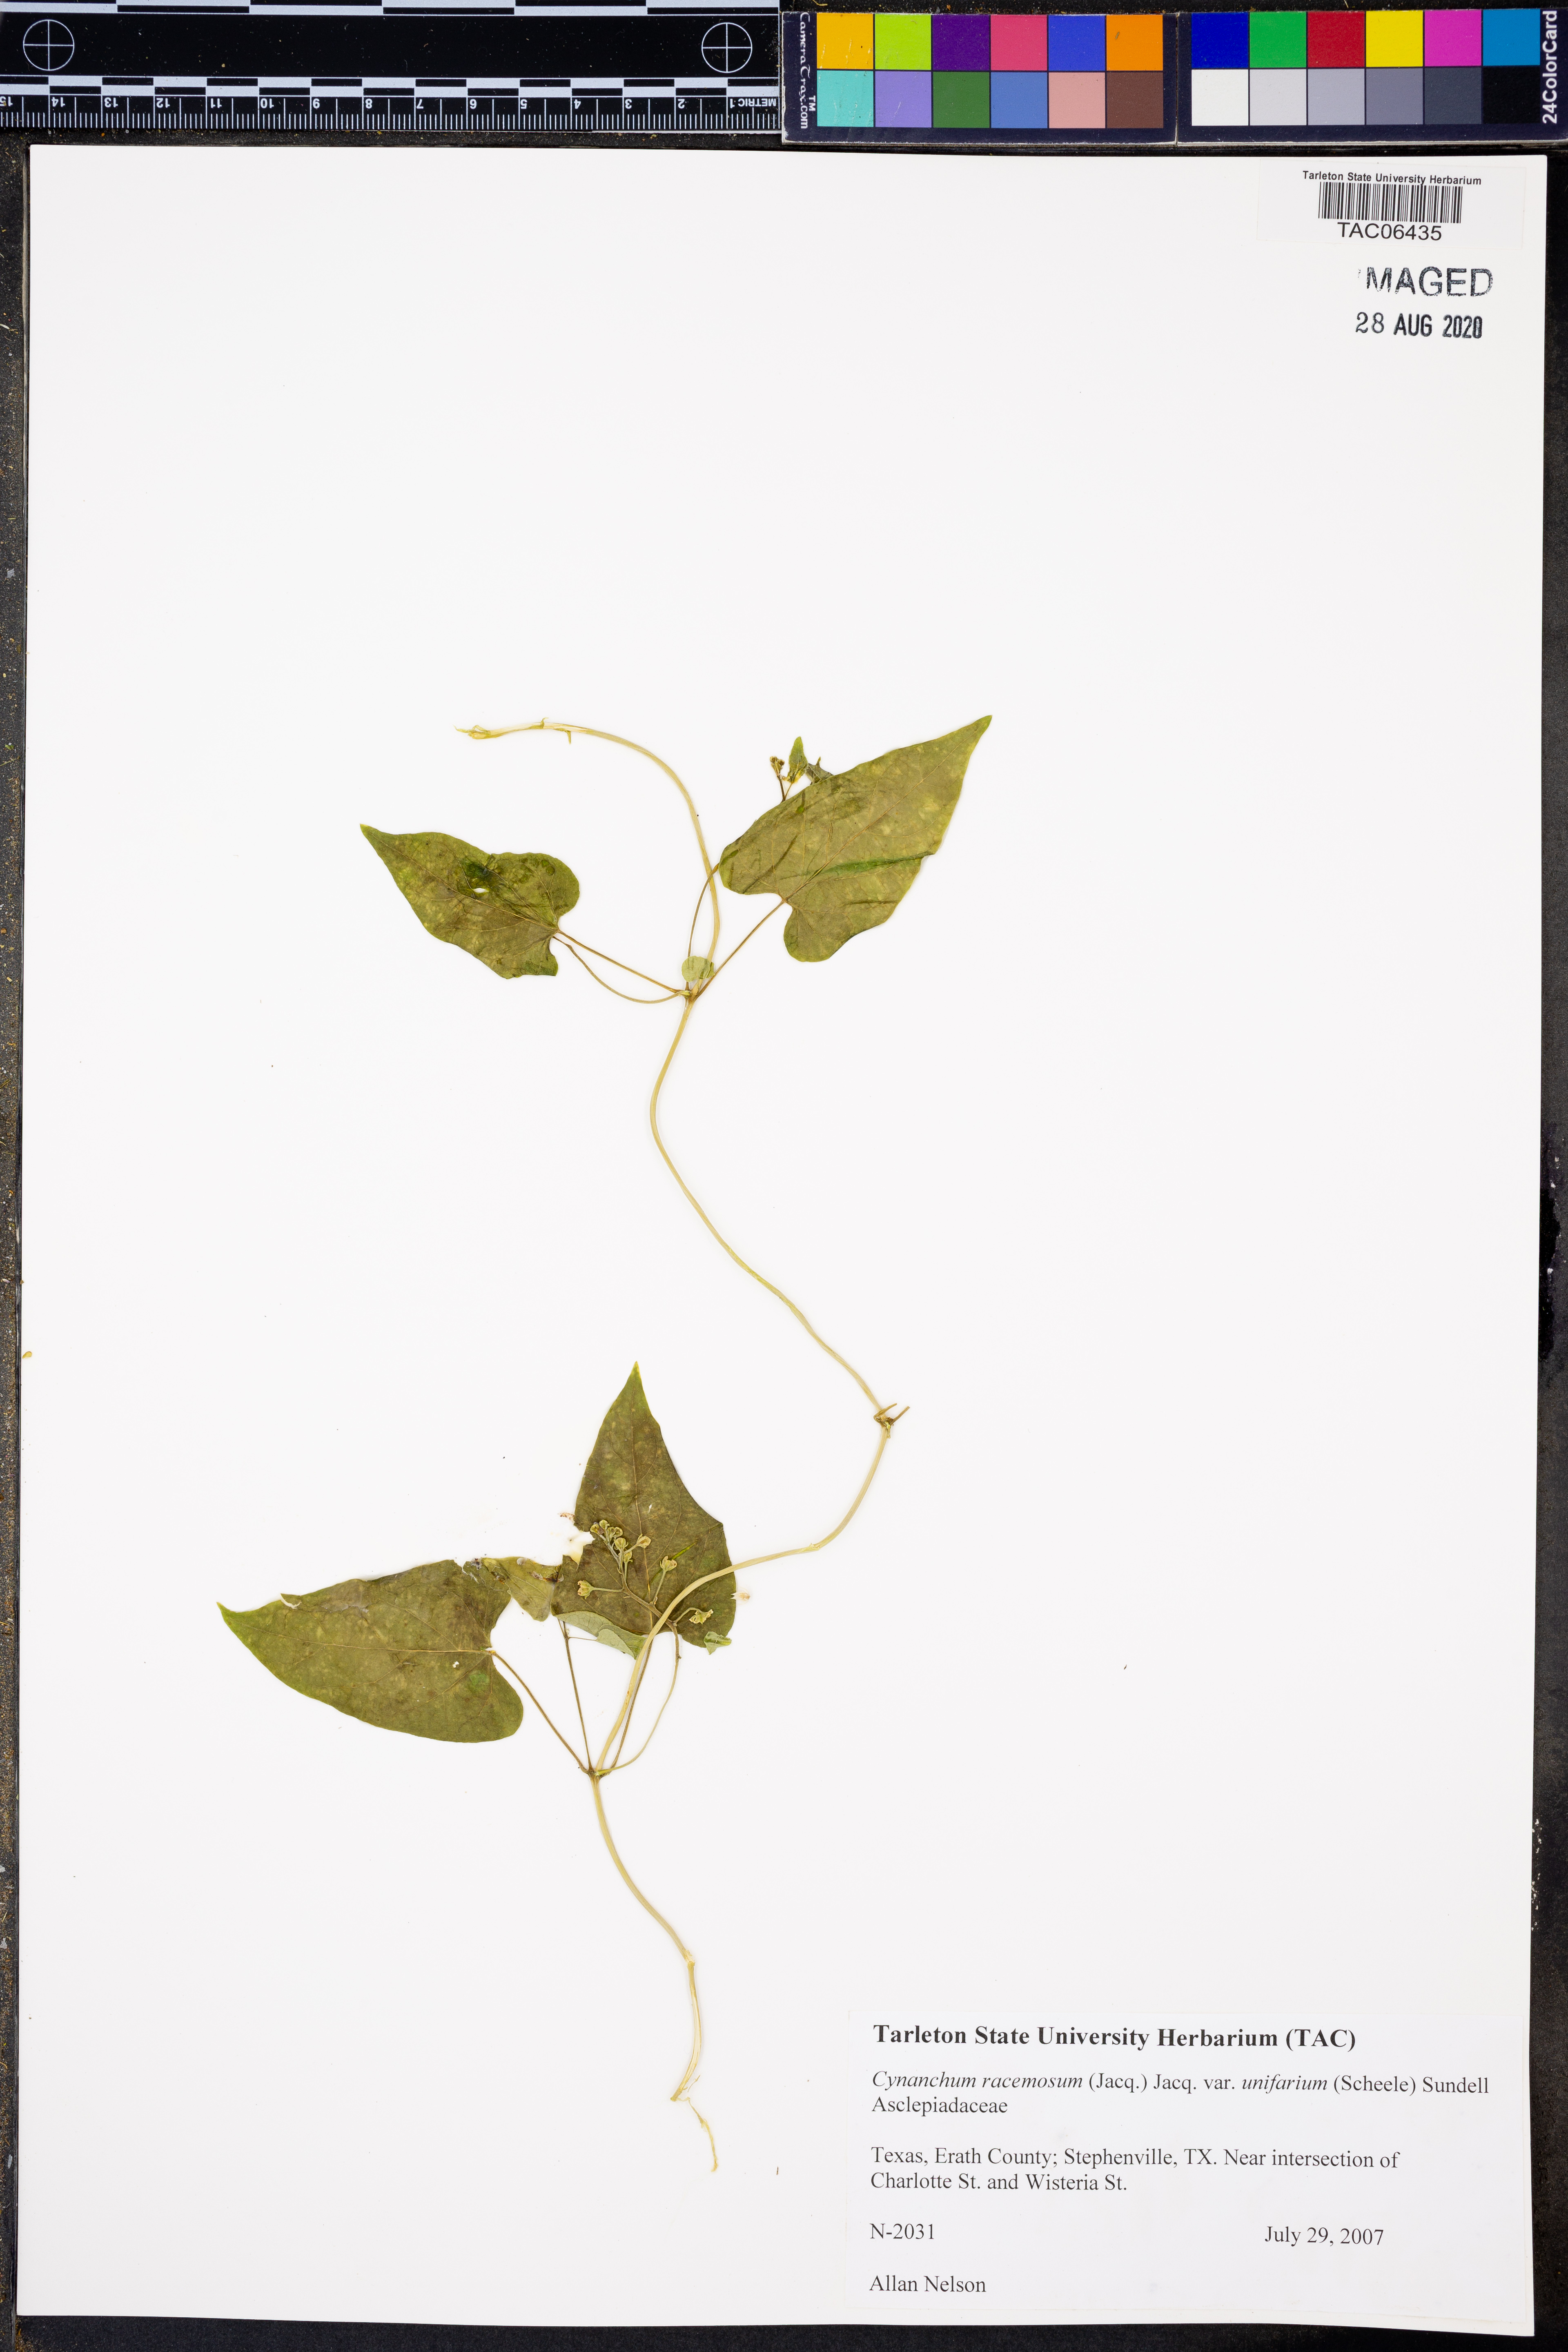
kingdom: Plantae
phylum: Tracheophyta
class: Magnoliopsida
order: Gentianales
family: Apocynaceae
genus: Cynanchum
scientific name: Cynanchum racemosum
